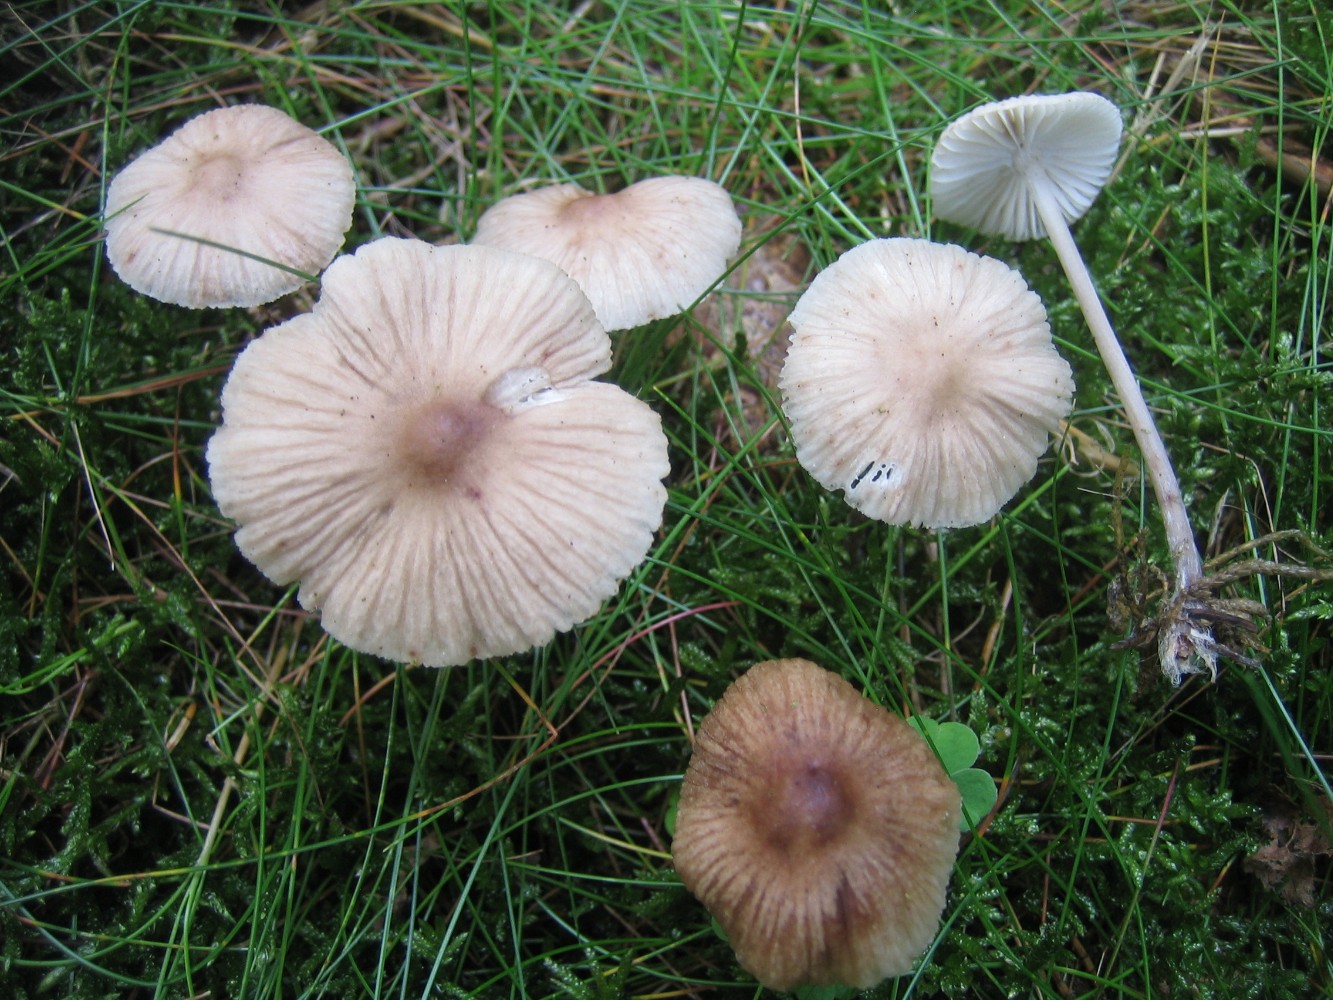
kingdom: Fungi
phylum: Basidiomycota
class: Agaricomycetes
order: Agaricales
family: Mycenaceae
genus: Mycena
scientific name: Mycena zephirus
